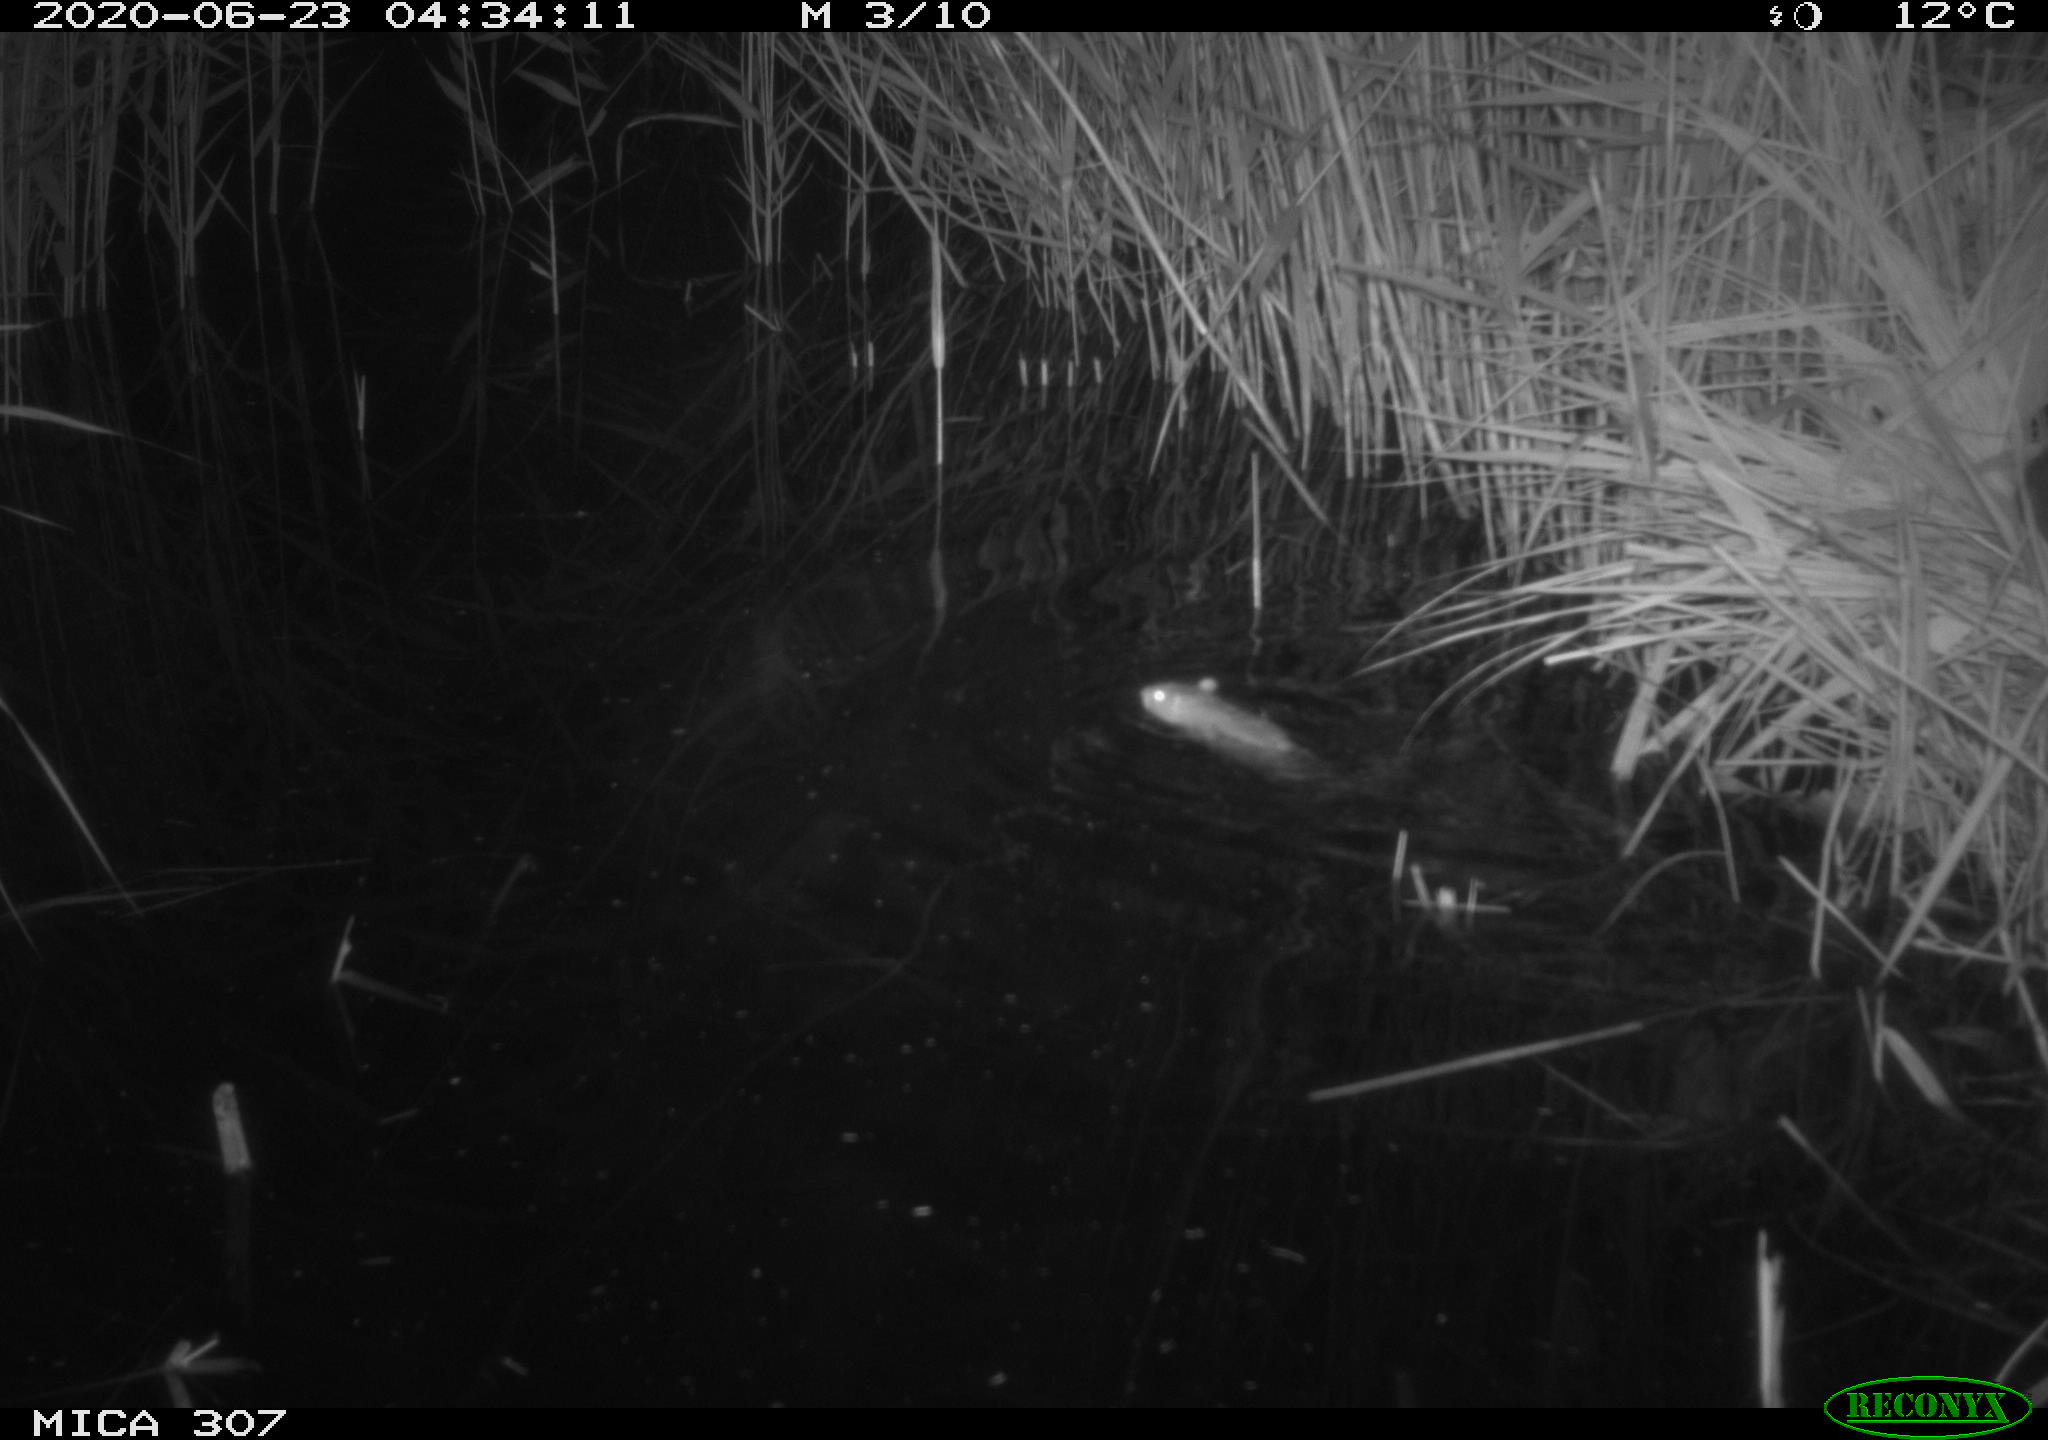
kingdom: Animalia
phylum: Chordata
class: Mammalia
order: Rodentia
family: Muridae
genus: Rattus
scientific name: Rattus norvegicus
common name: Brown rat
